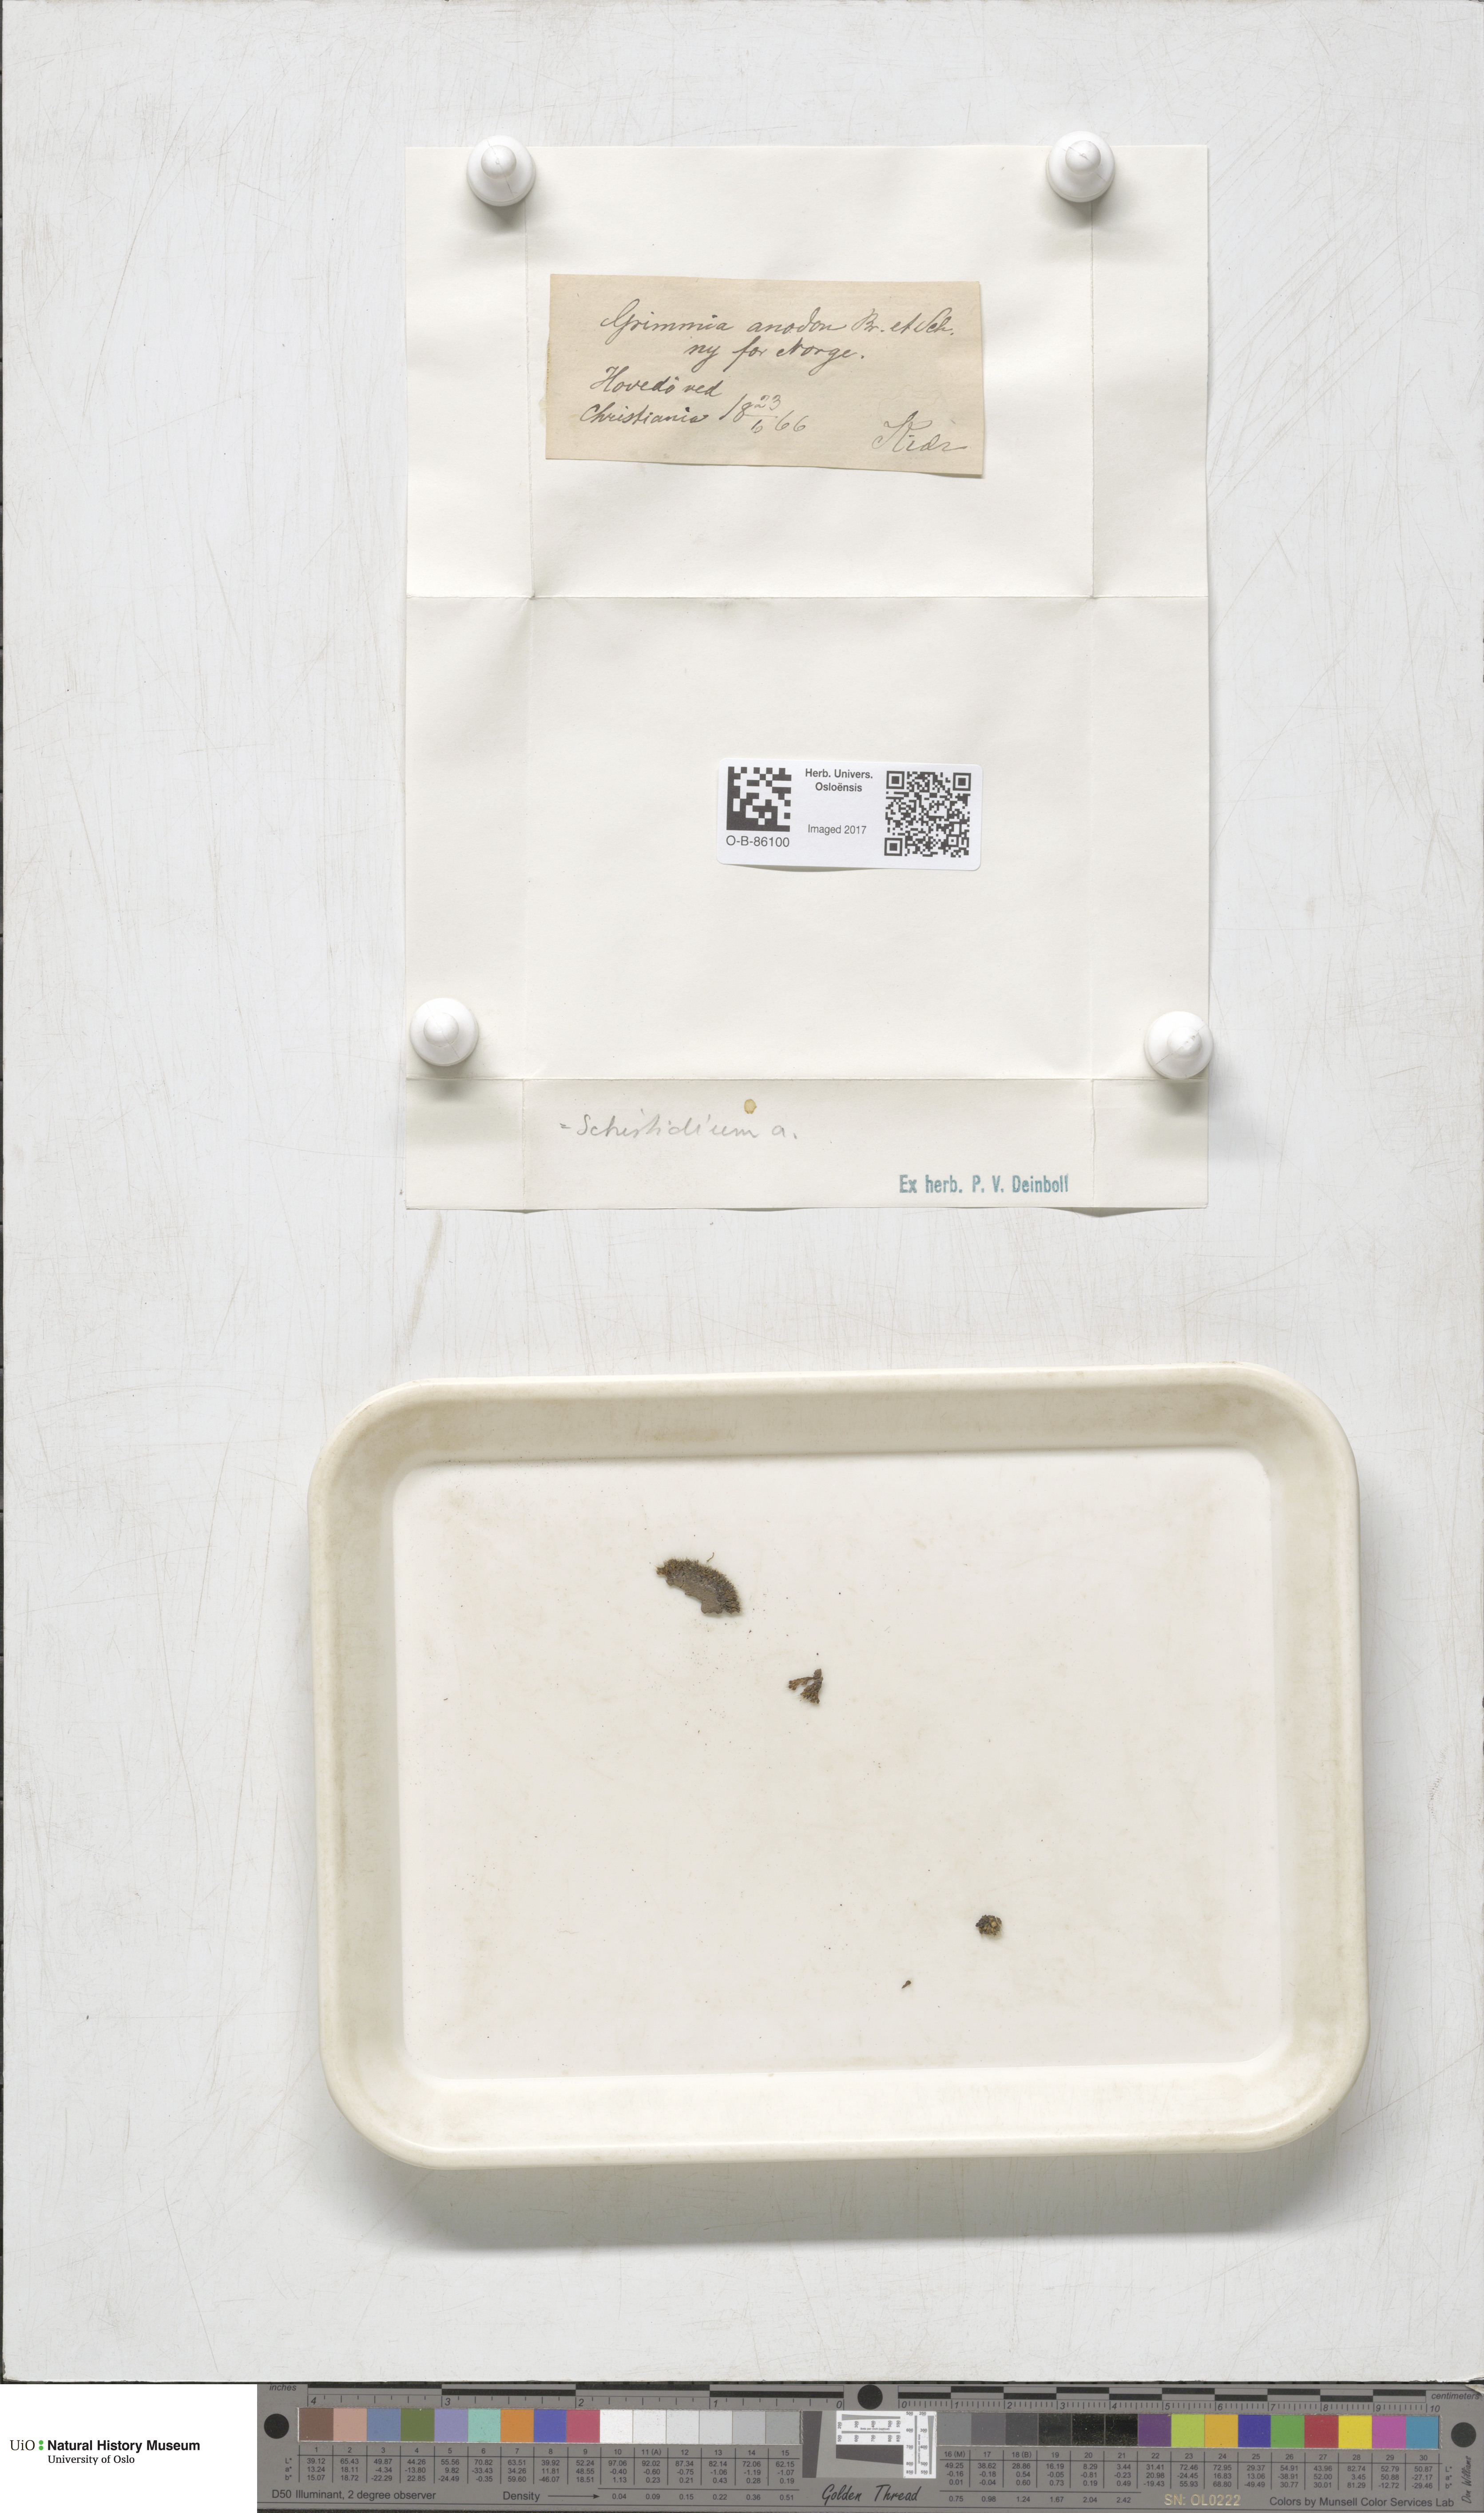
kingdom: Plantae
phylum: Bryophyta
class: Bryopsida
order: Grimmiales
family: Grimmiaceae
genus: Grimmia
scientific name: Grimmia anodon
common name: Toothless grimmia
